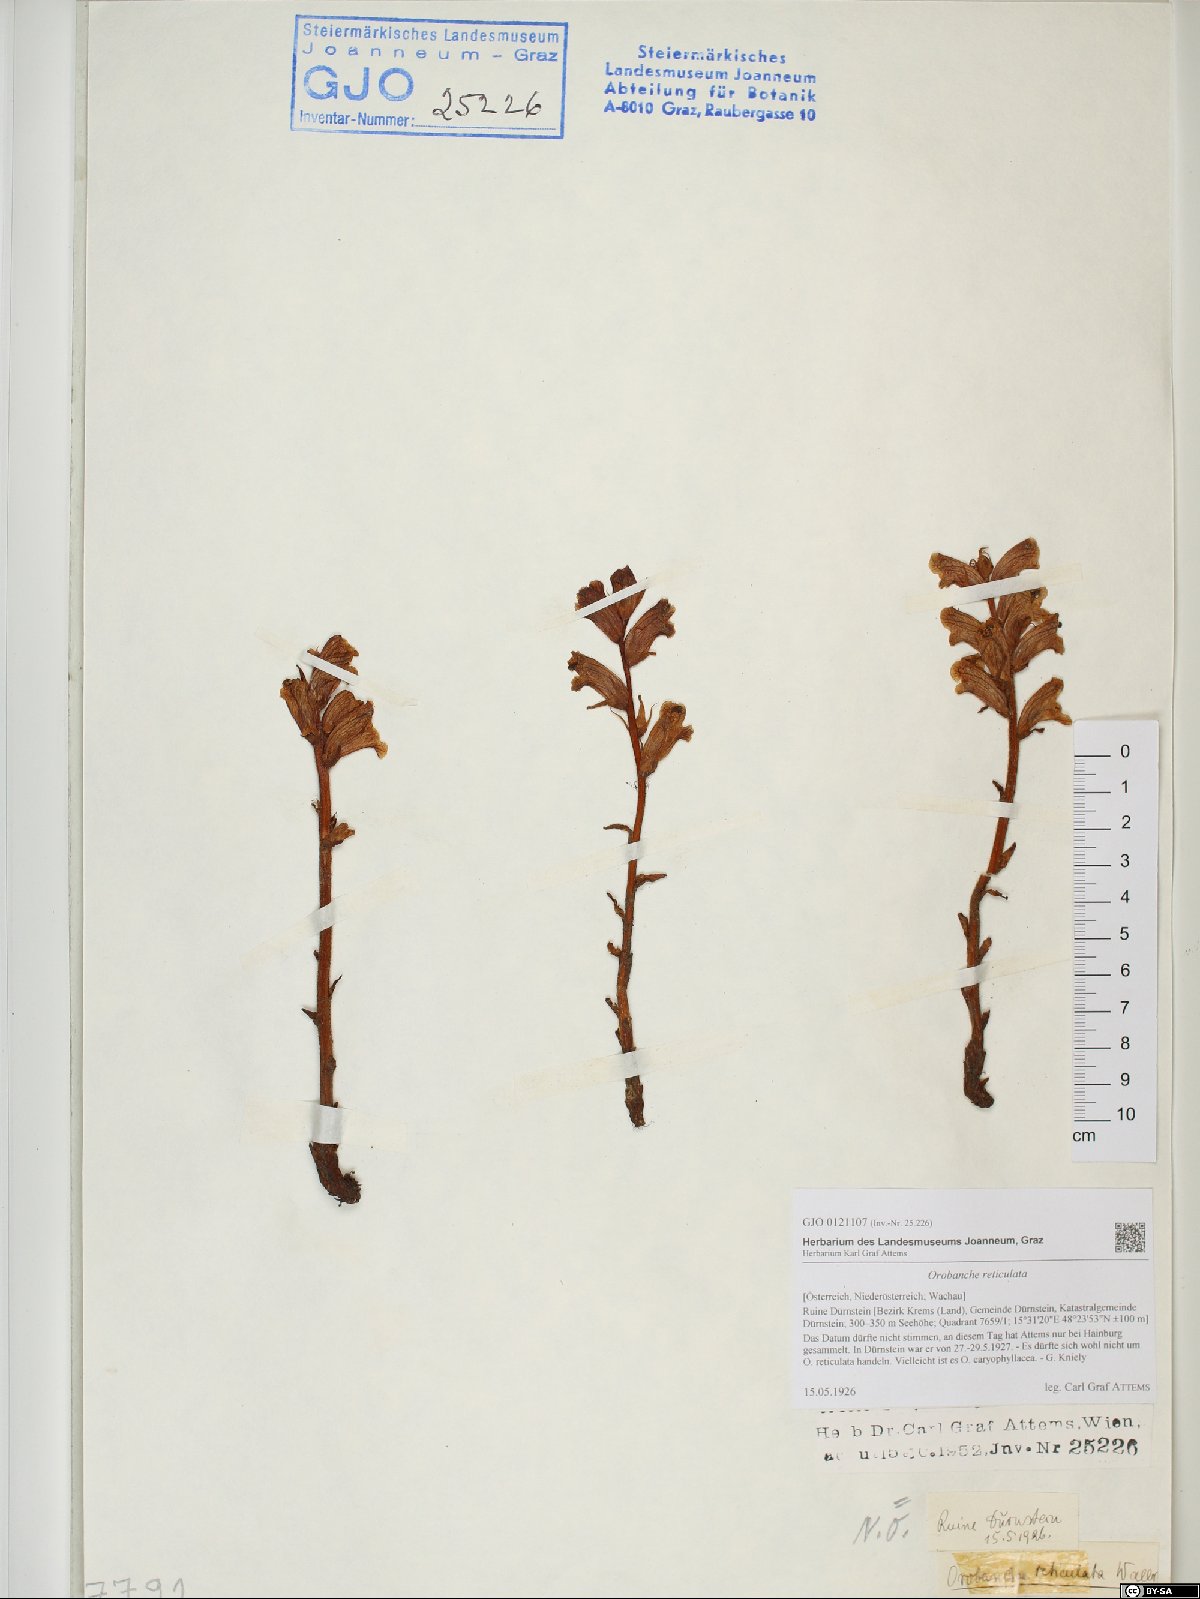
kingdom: Plantae
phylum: Tracheophyta
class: Magnoliopsida
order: Lamiales
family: Orobanchaceae
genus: Orobanche
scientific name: Orobanche reticulata
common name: Thistle broomrape
